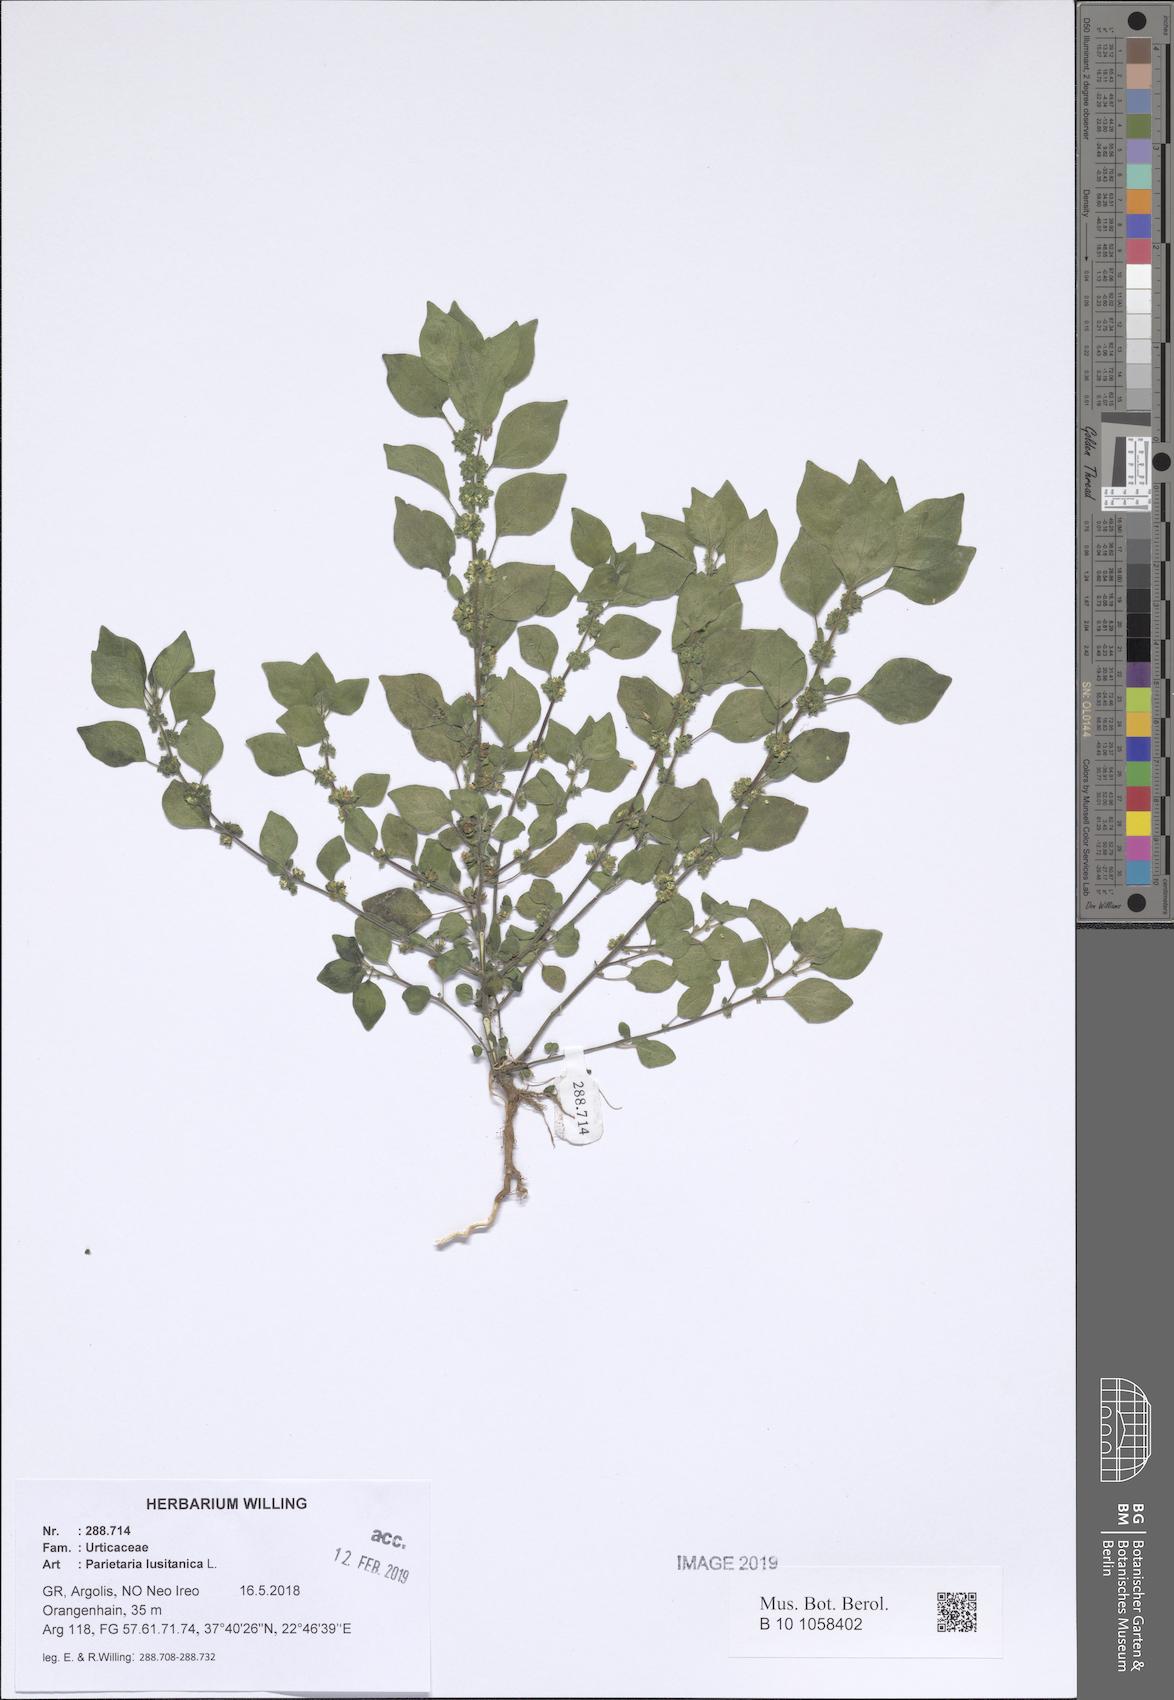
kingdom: Plantae
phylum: Tracheophyta
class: Magnoliopsida
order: Rosales
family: Urticaceae
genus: Parietaria
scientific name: Parietaria lusitanica
